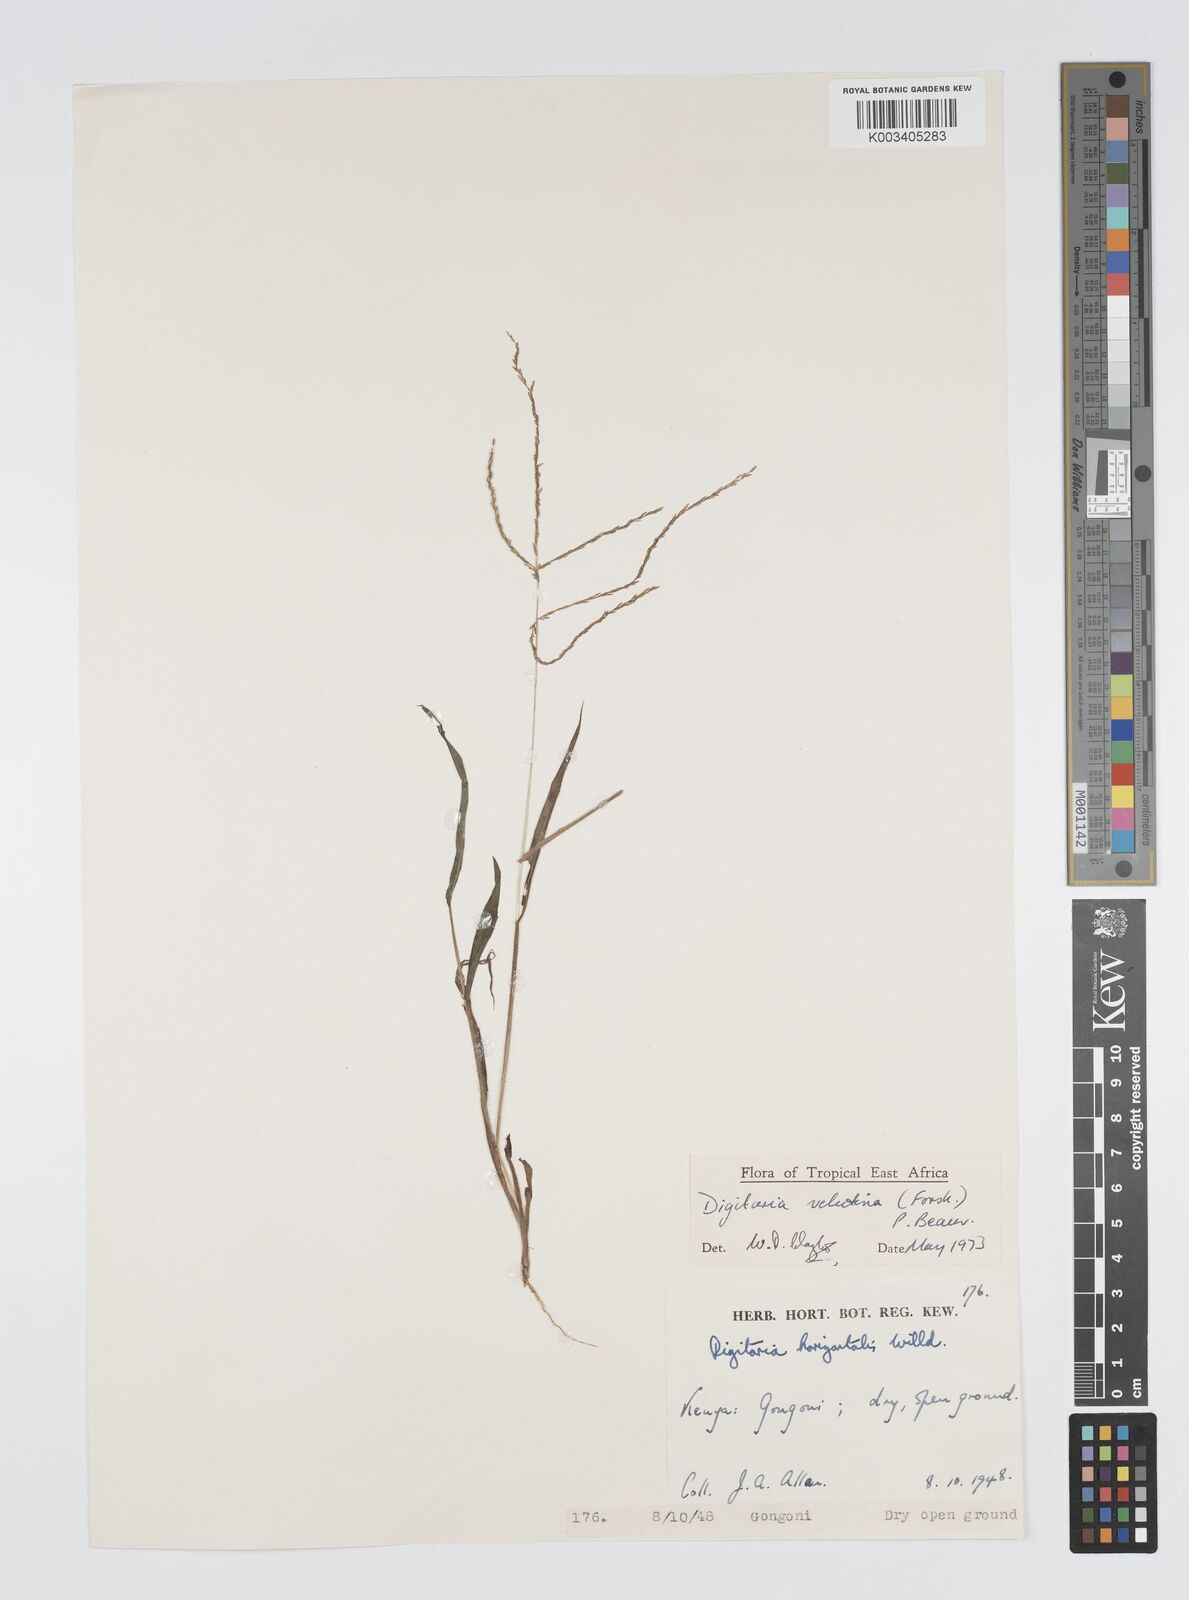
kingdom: Plantae
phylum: Tracheophyta
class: Liliopsida
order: Poales
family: Poaceae
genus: Digitaria
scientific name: Digitaria velutina
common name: Long-plume finger grass
